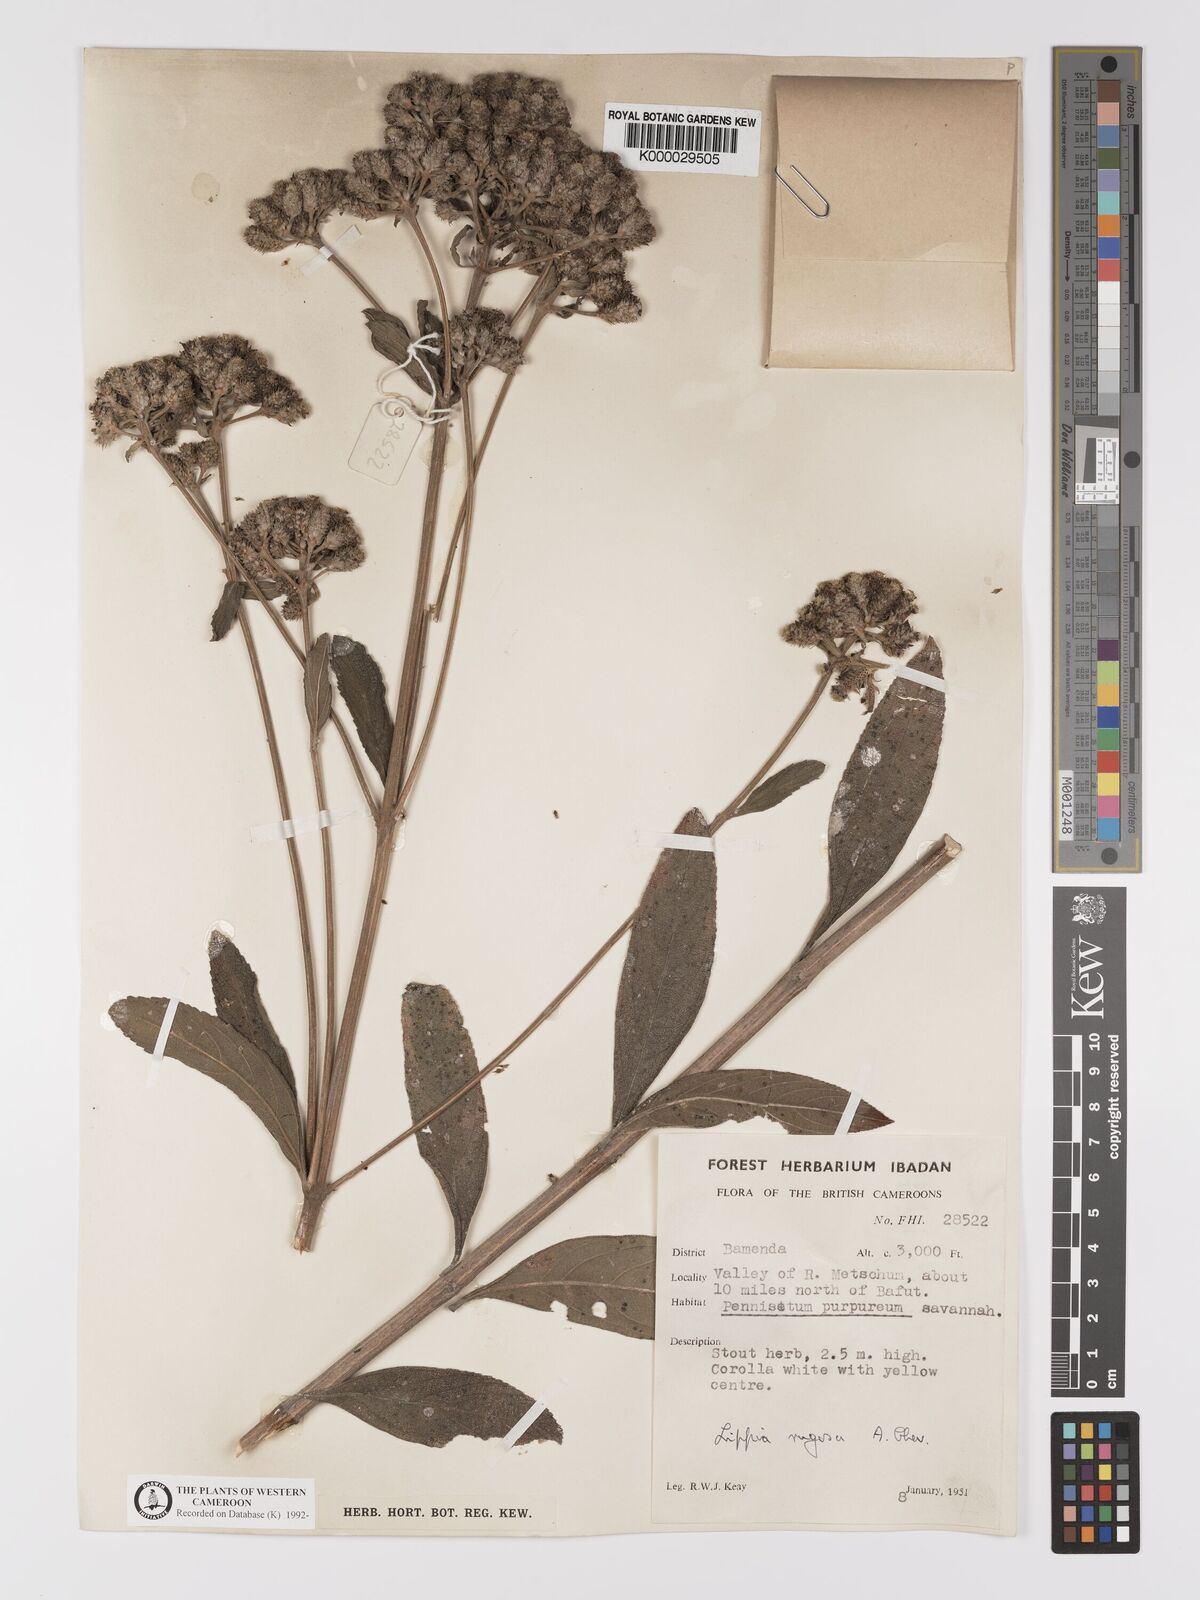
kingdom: Plantae
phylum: Tracheophyta
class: Magnoliopsida
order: Lamiales
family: Verbenaceae
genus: Lippia
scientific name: Lippia rugosa
